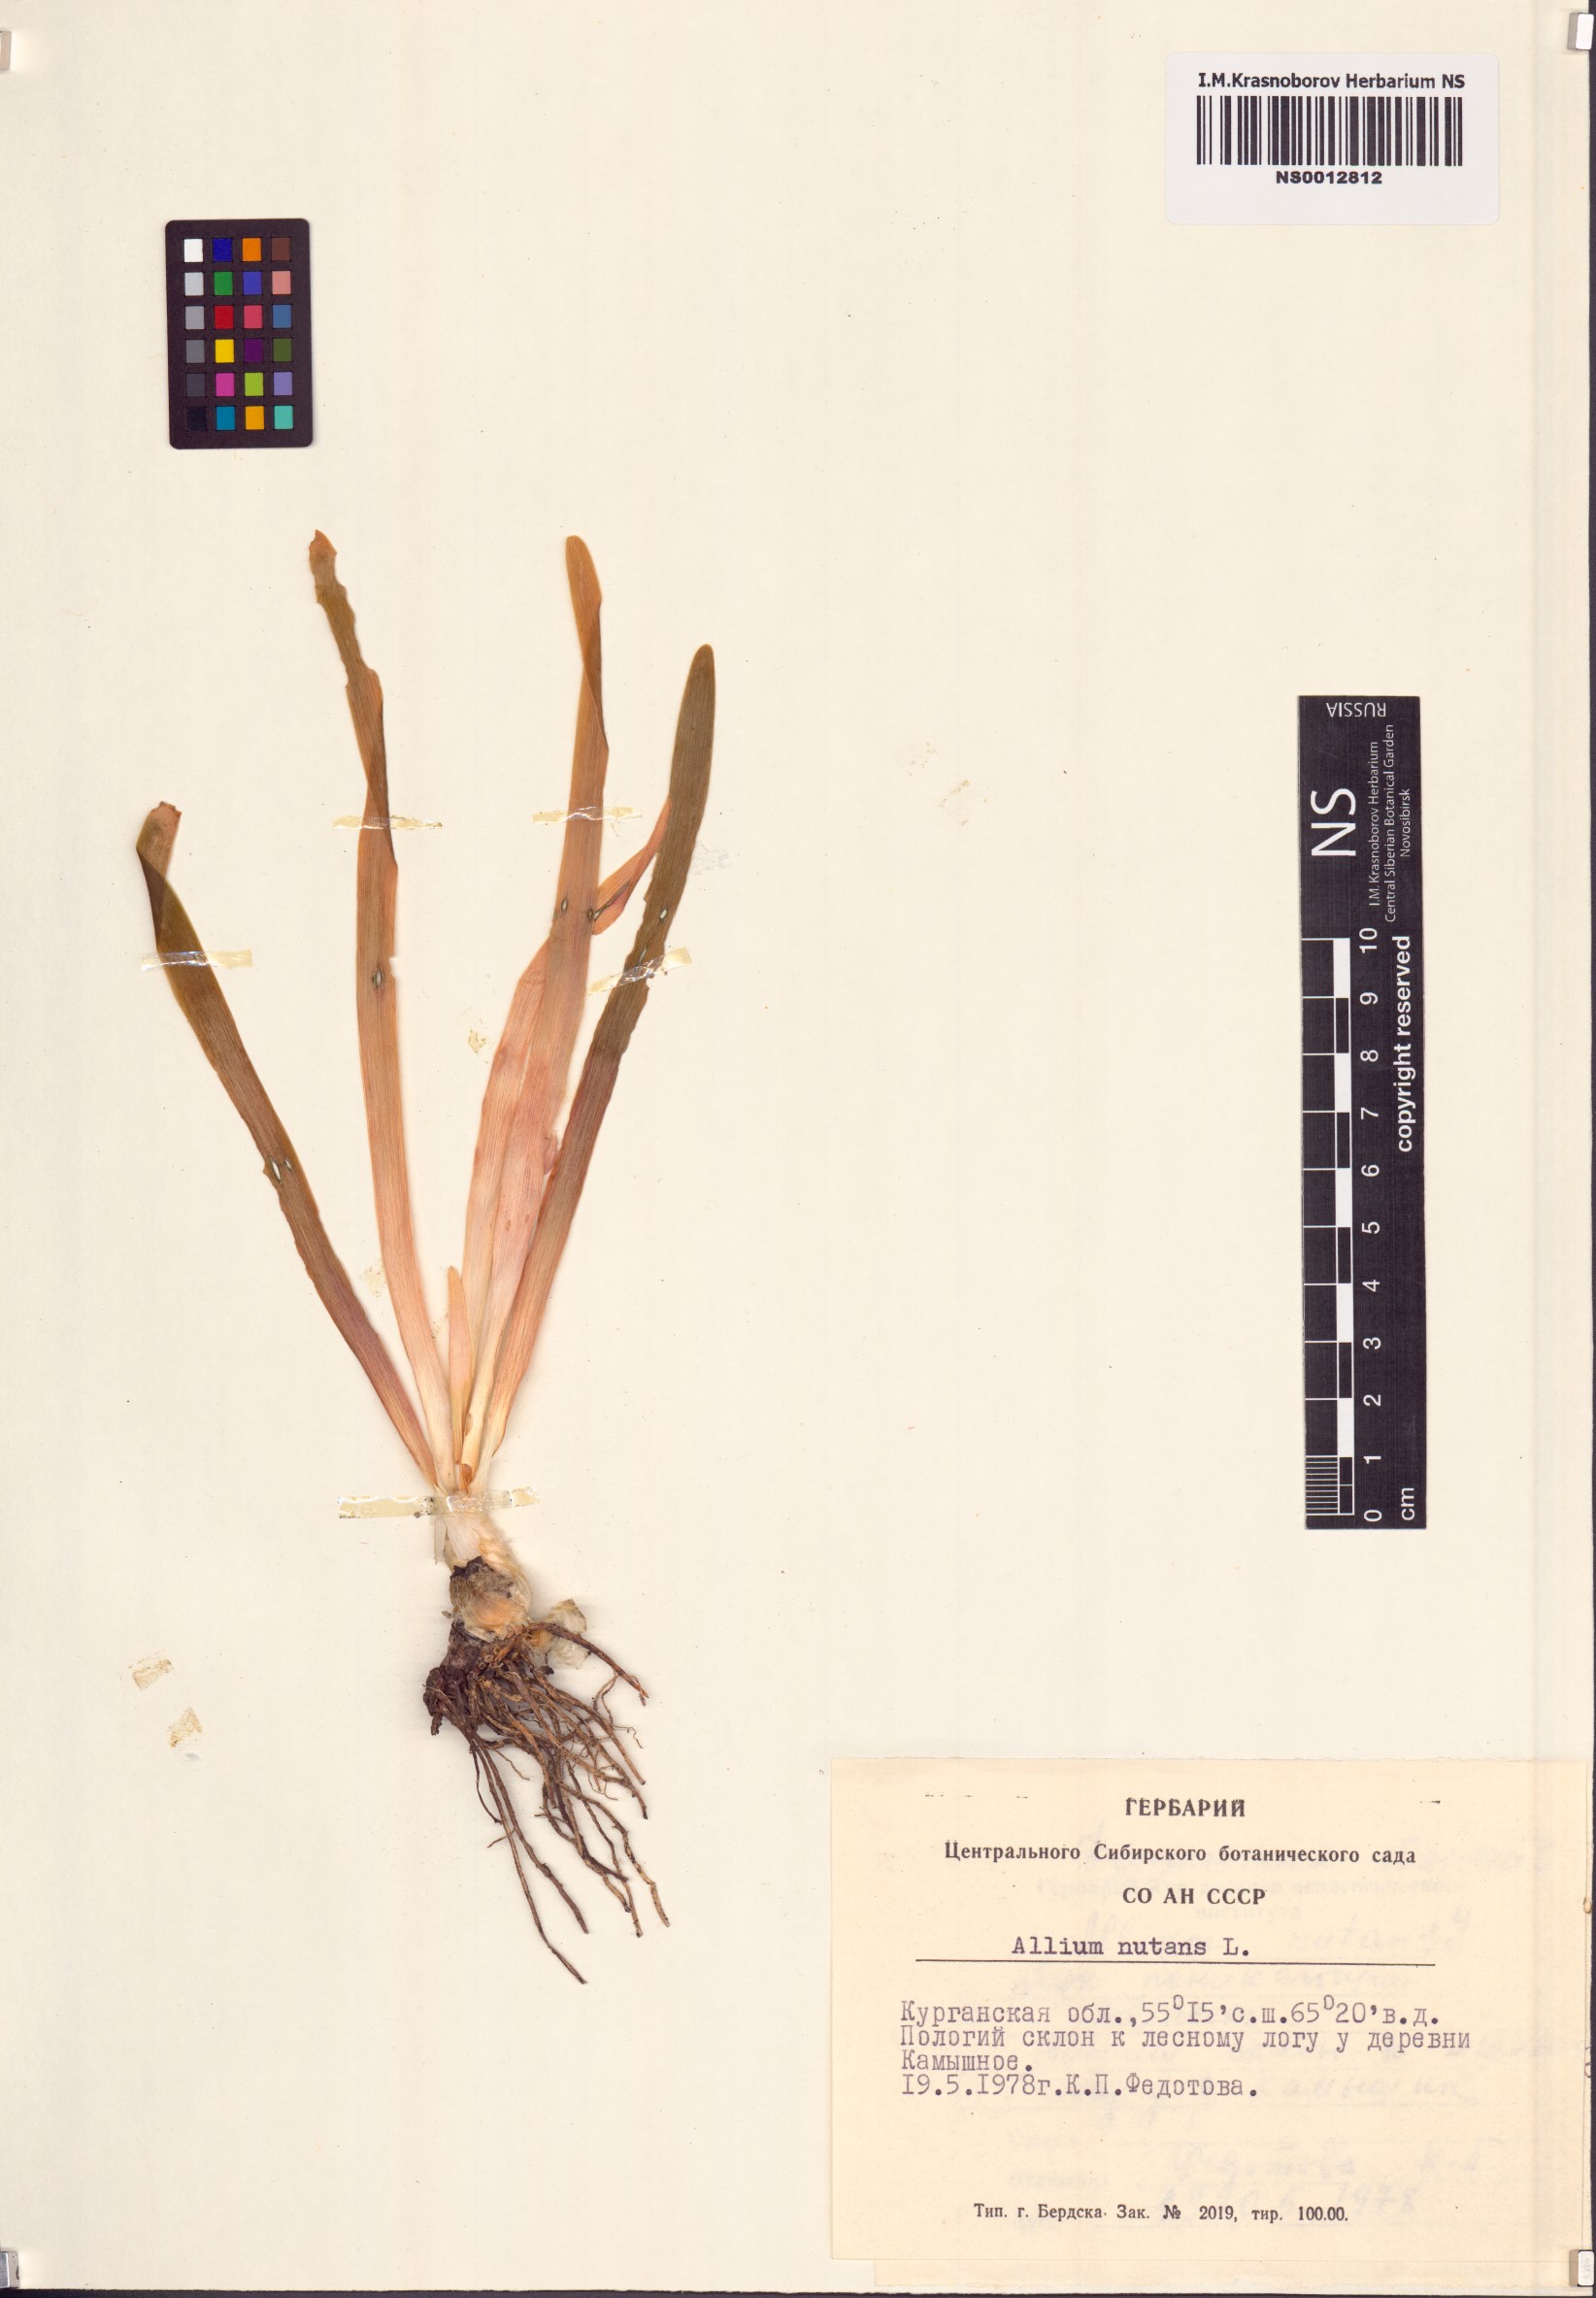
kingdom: Plantae
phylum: Tracheophyta
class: Liliopsida
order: Asparagales
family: Amaryllidaceae
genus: Allium
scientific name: Allium nutans
